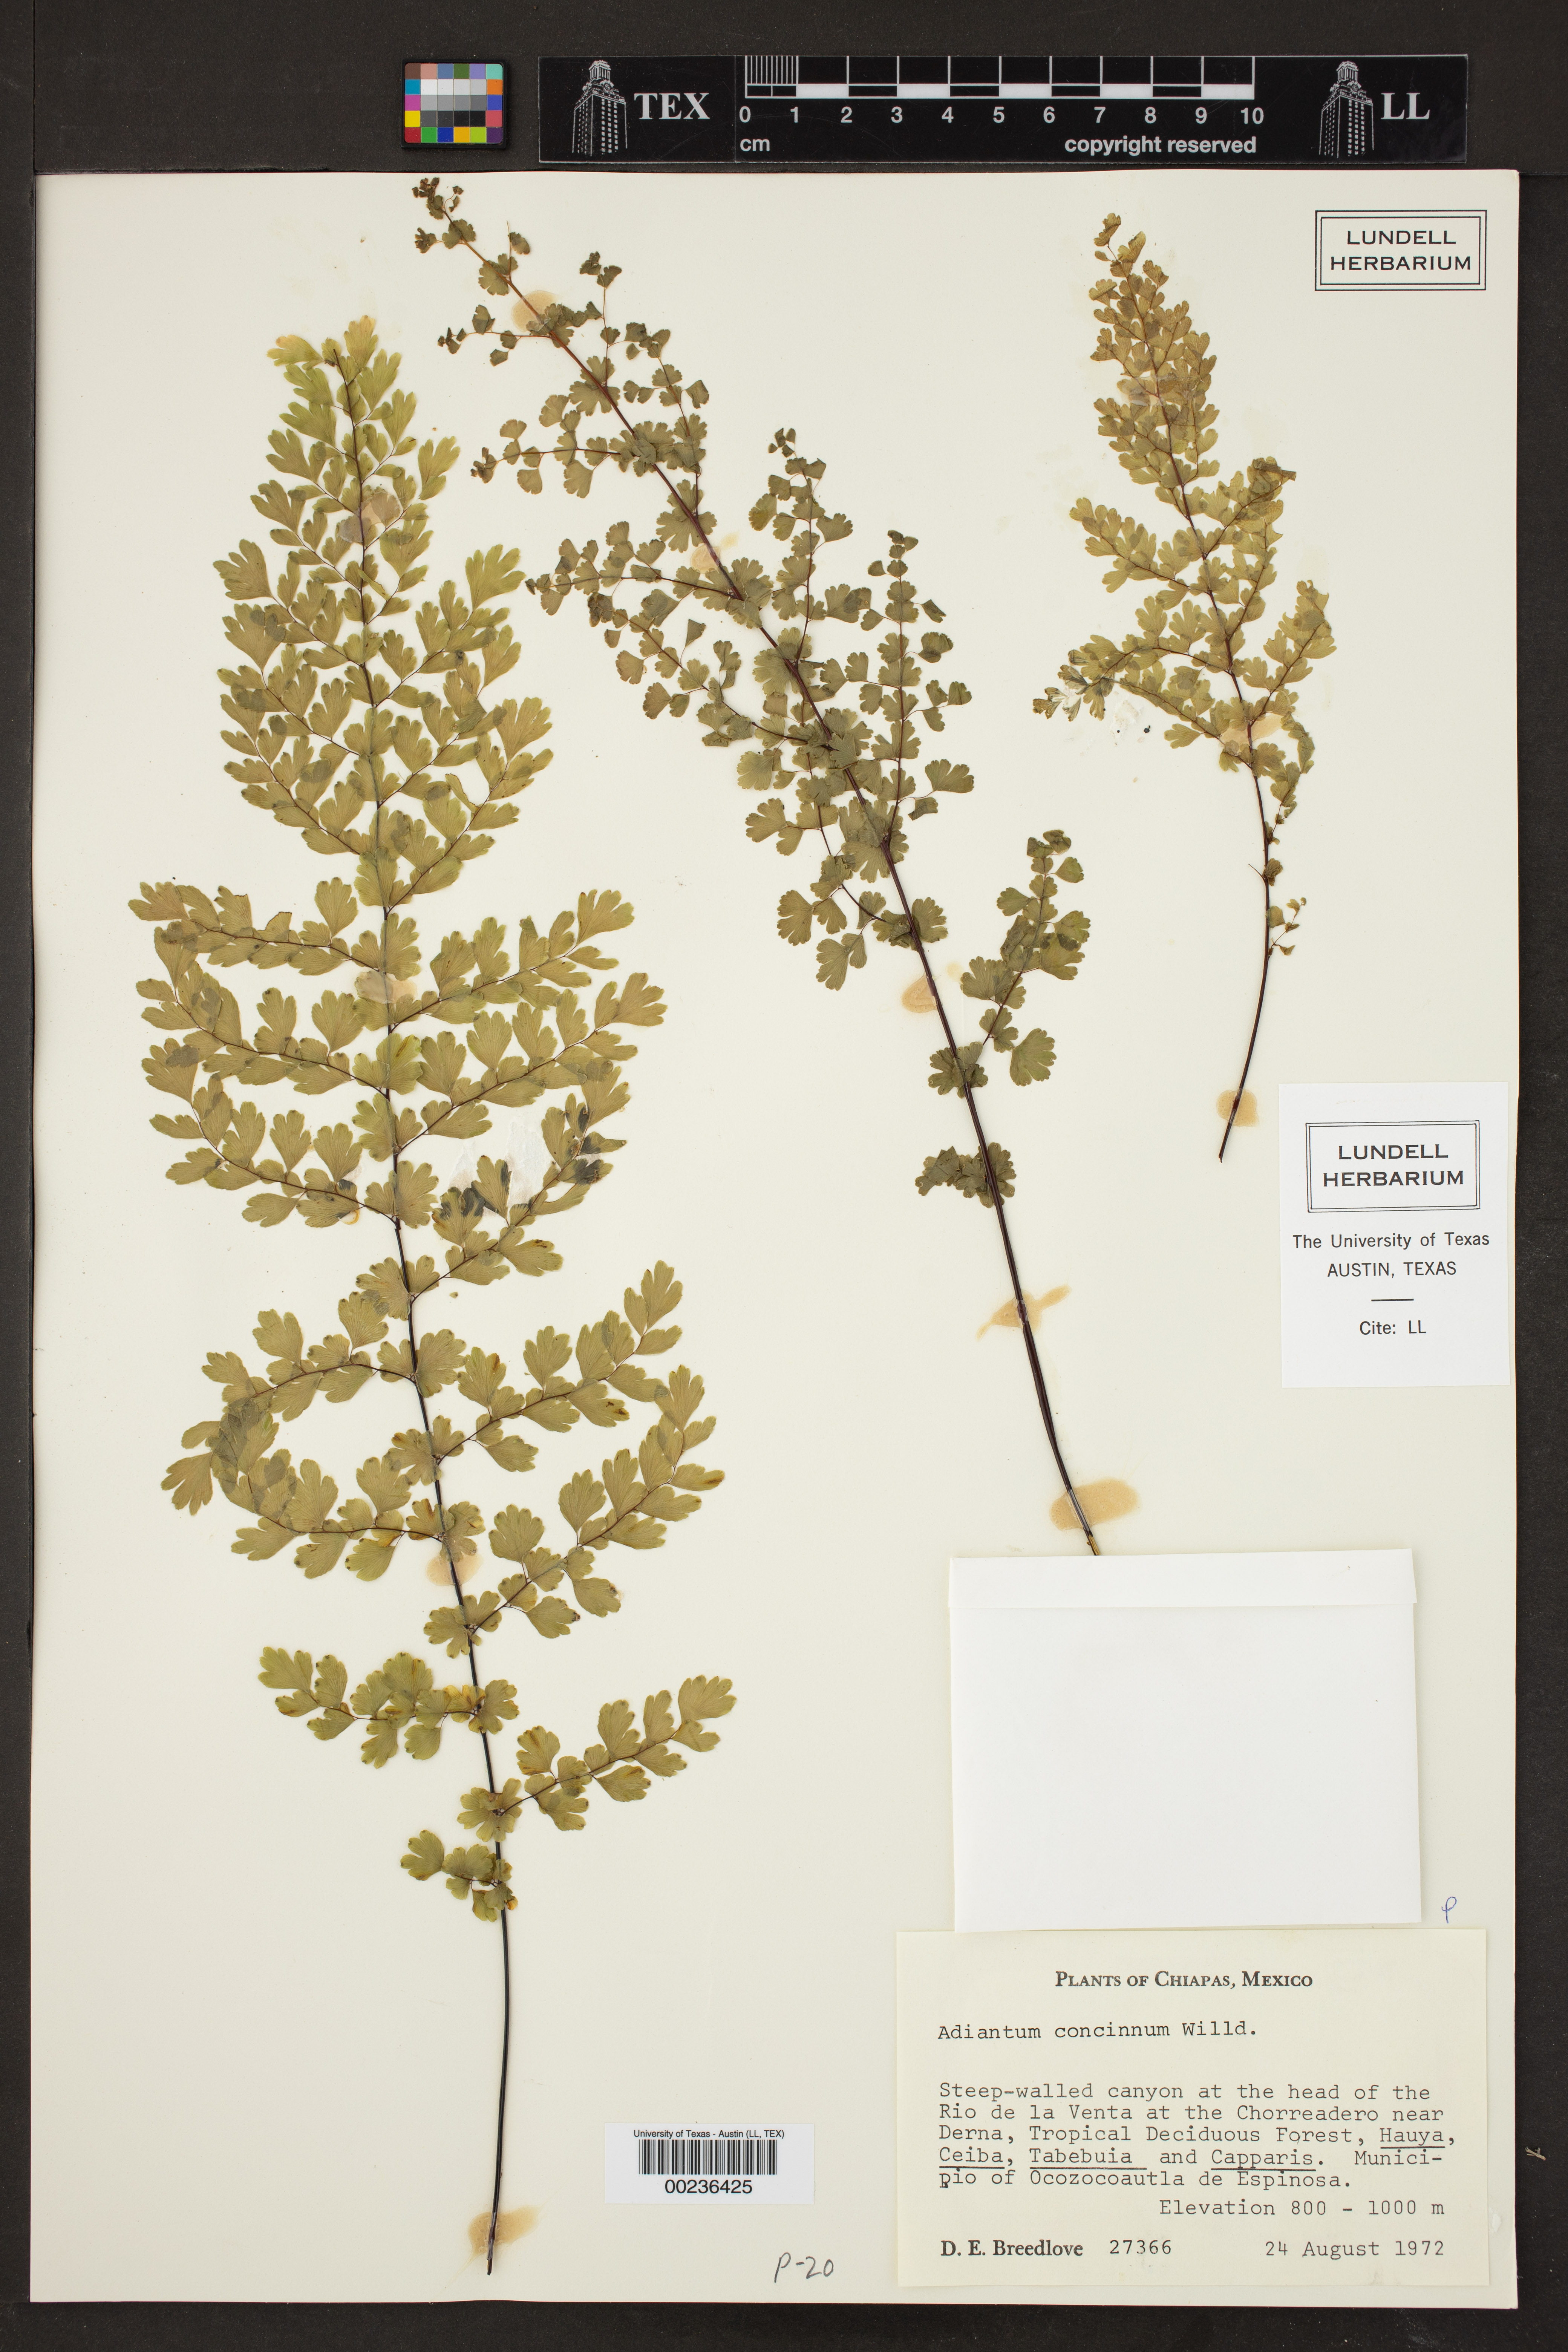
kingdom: Plantae
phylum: Tracheophyta
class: Polypodiopsida
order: Polypodiales
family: Pteridaceae
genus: Adiantum
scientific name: Adiantum concinnum
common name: Brittle maidenhair fern
